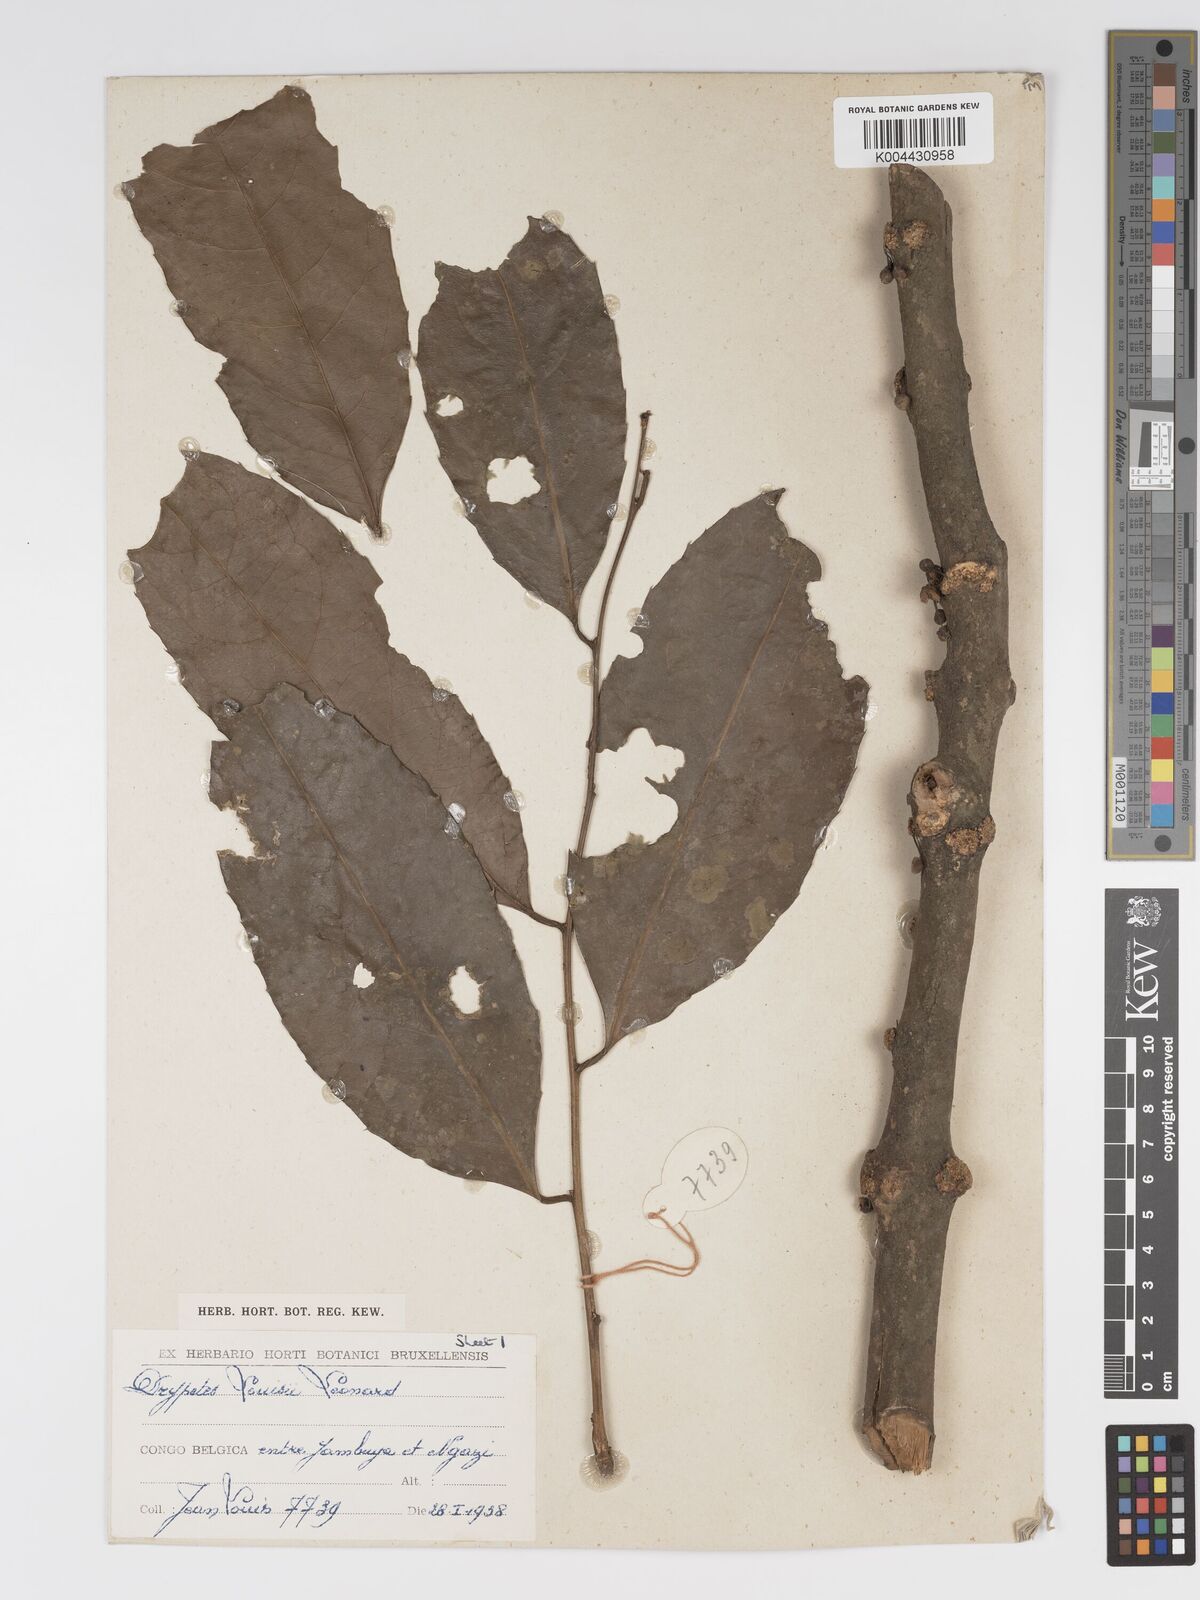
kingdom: Plantae
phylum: Tracheophyta
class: Magnoliopsida
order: Malpighiales
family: Putranjivaceae
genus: Drypetes
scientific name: Drypetes
